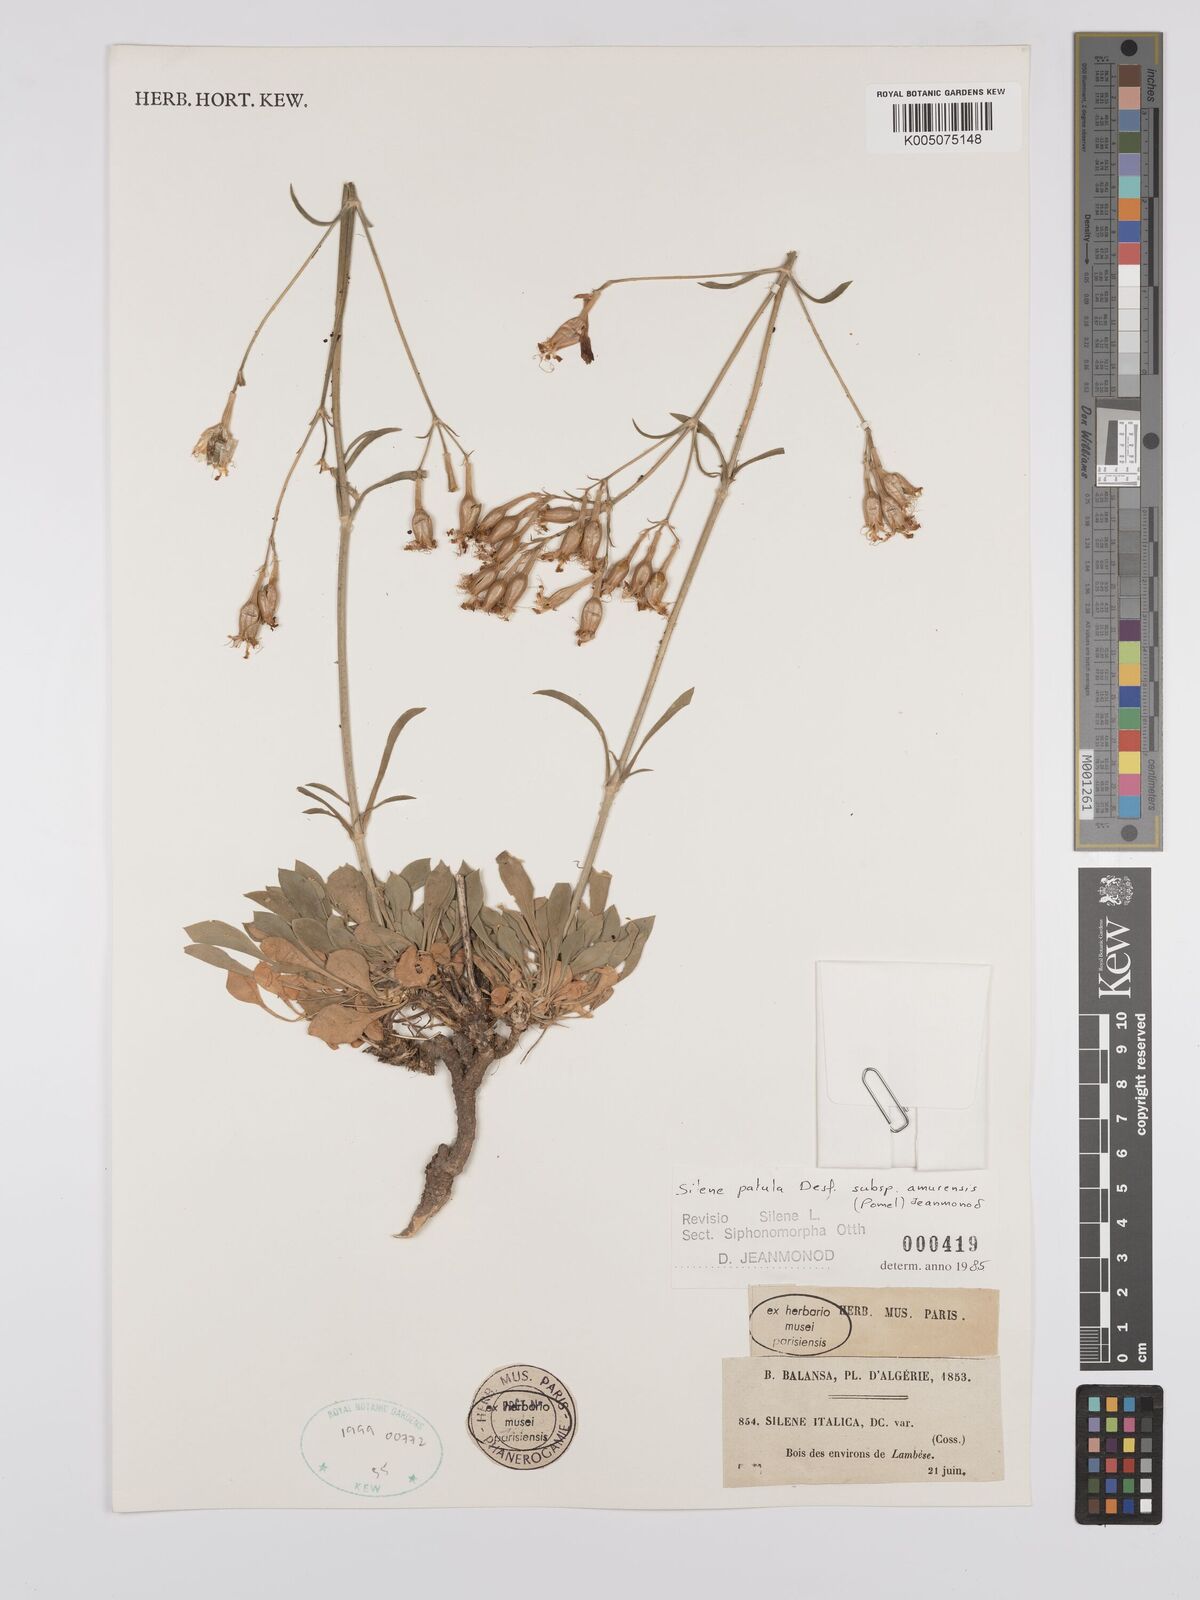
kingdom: Plantae
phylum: Tracheophyta
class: Magnoliopsida
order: Caryophyllales
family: Caryophyllaceae
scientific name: Caryophyllaceae
